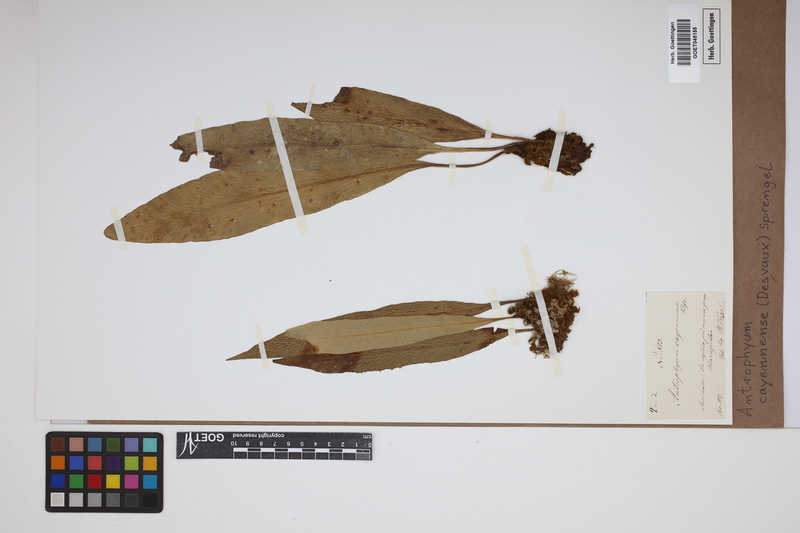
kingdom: Plantae
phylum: Tracheophyta
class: Polypodiopsida
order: Polypodiales
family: Pteridaceae
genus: Polytaenium
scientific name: Polytaenium cajenense
